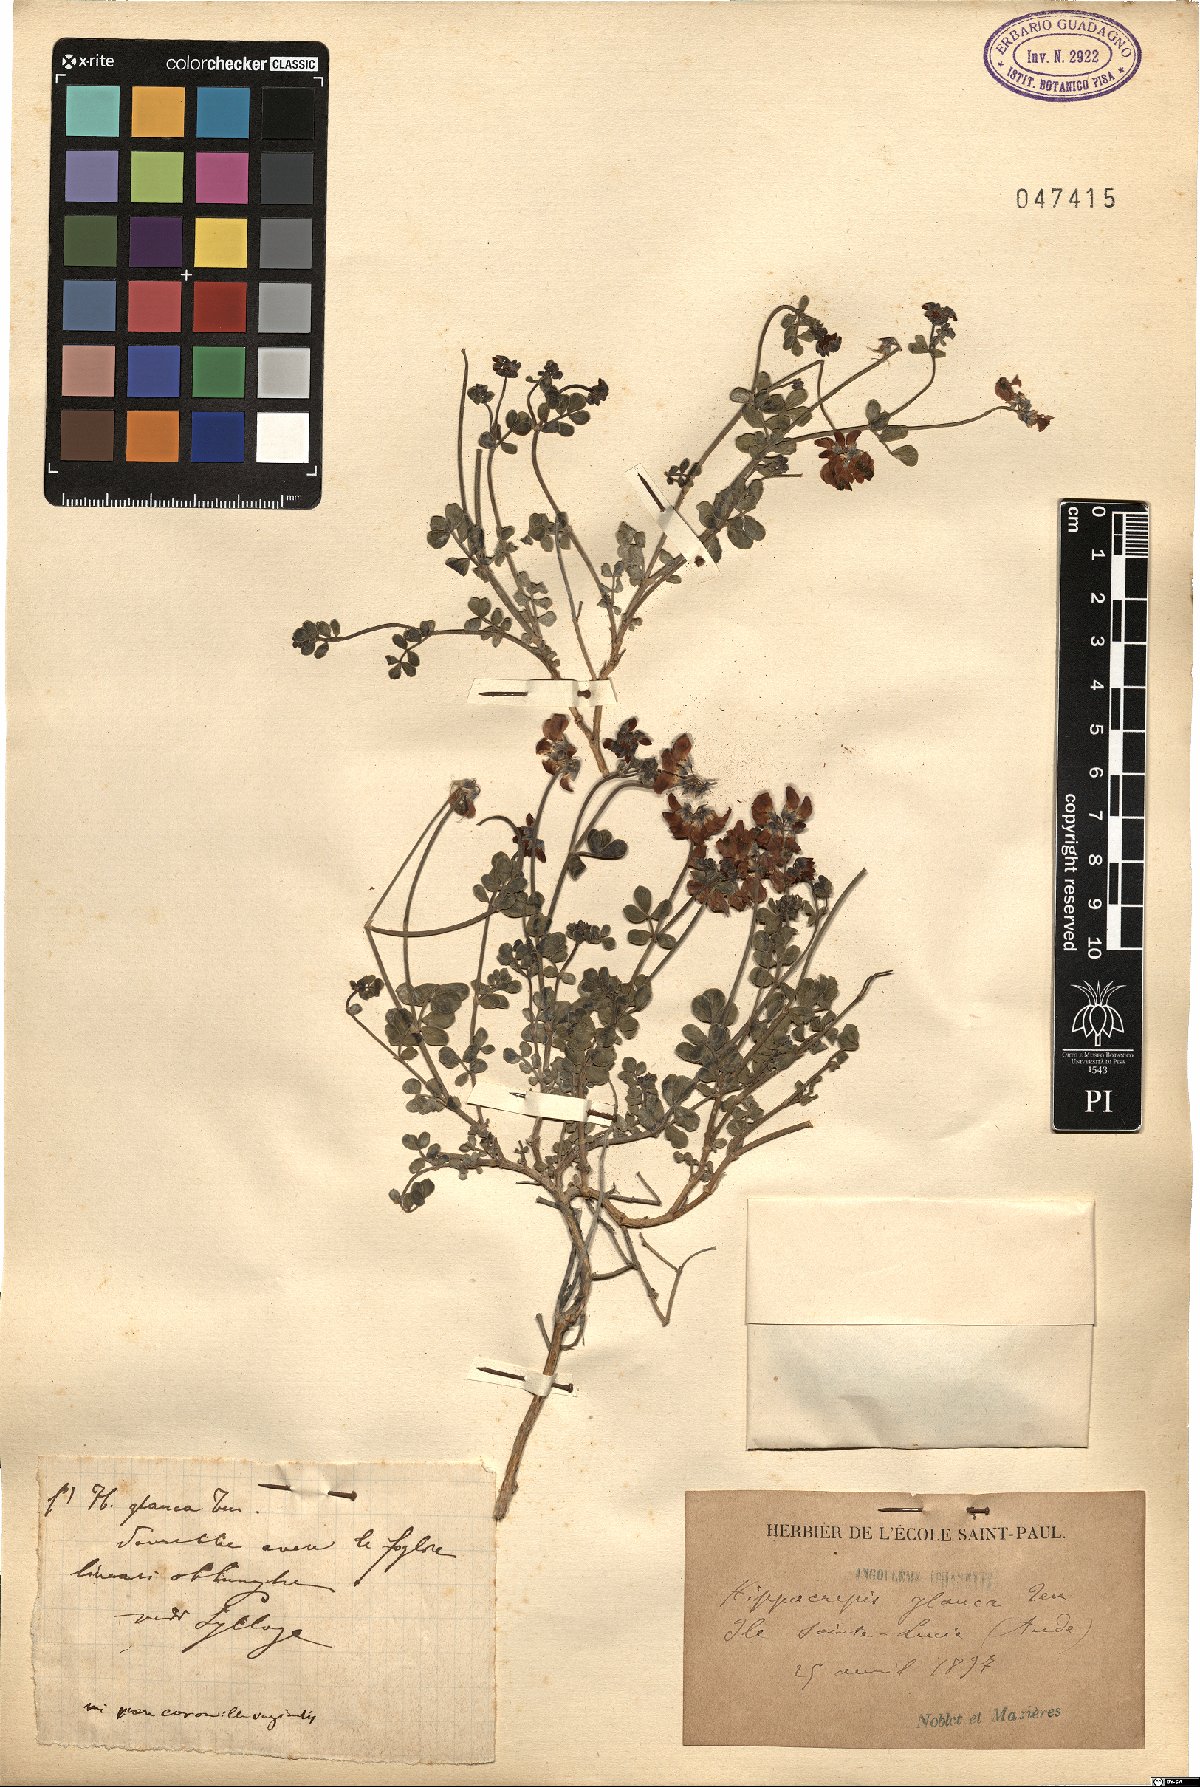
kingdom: Plantae
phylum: Tracheophyta
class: Magnoliopsida
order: Fabales
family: Fabaceae
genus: Hippocrepis
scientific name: Hippocrepis glauca
